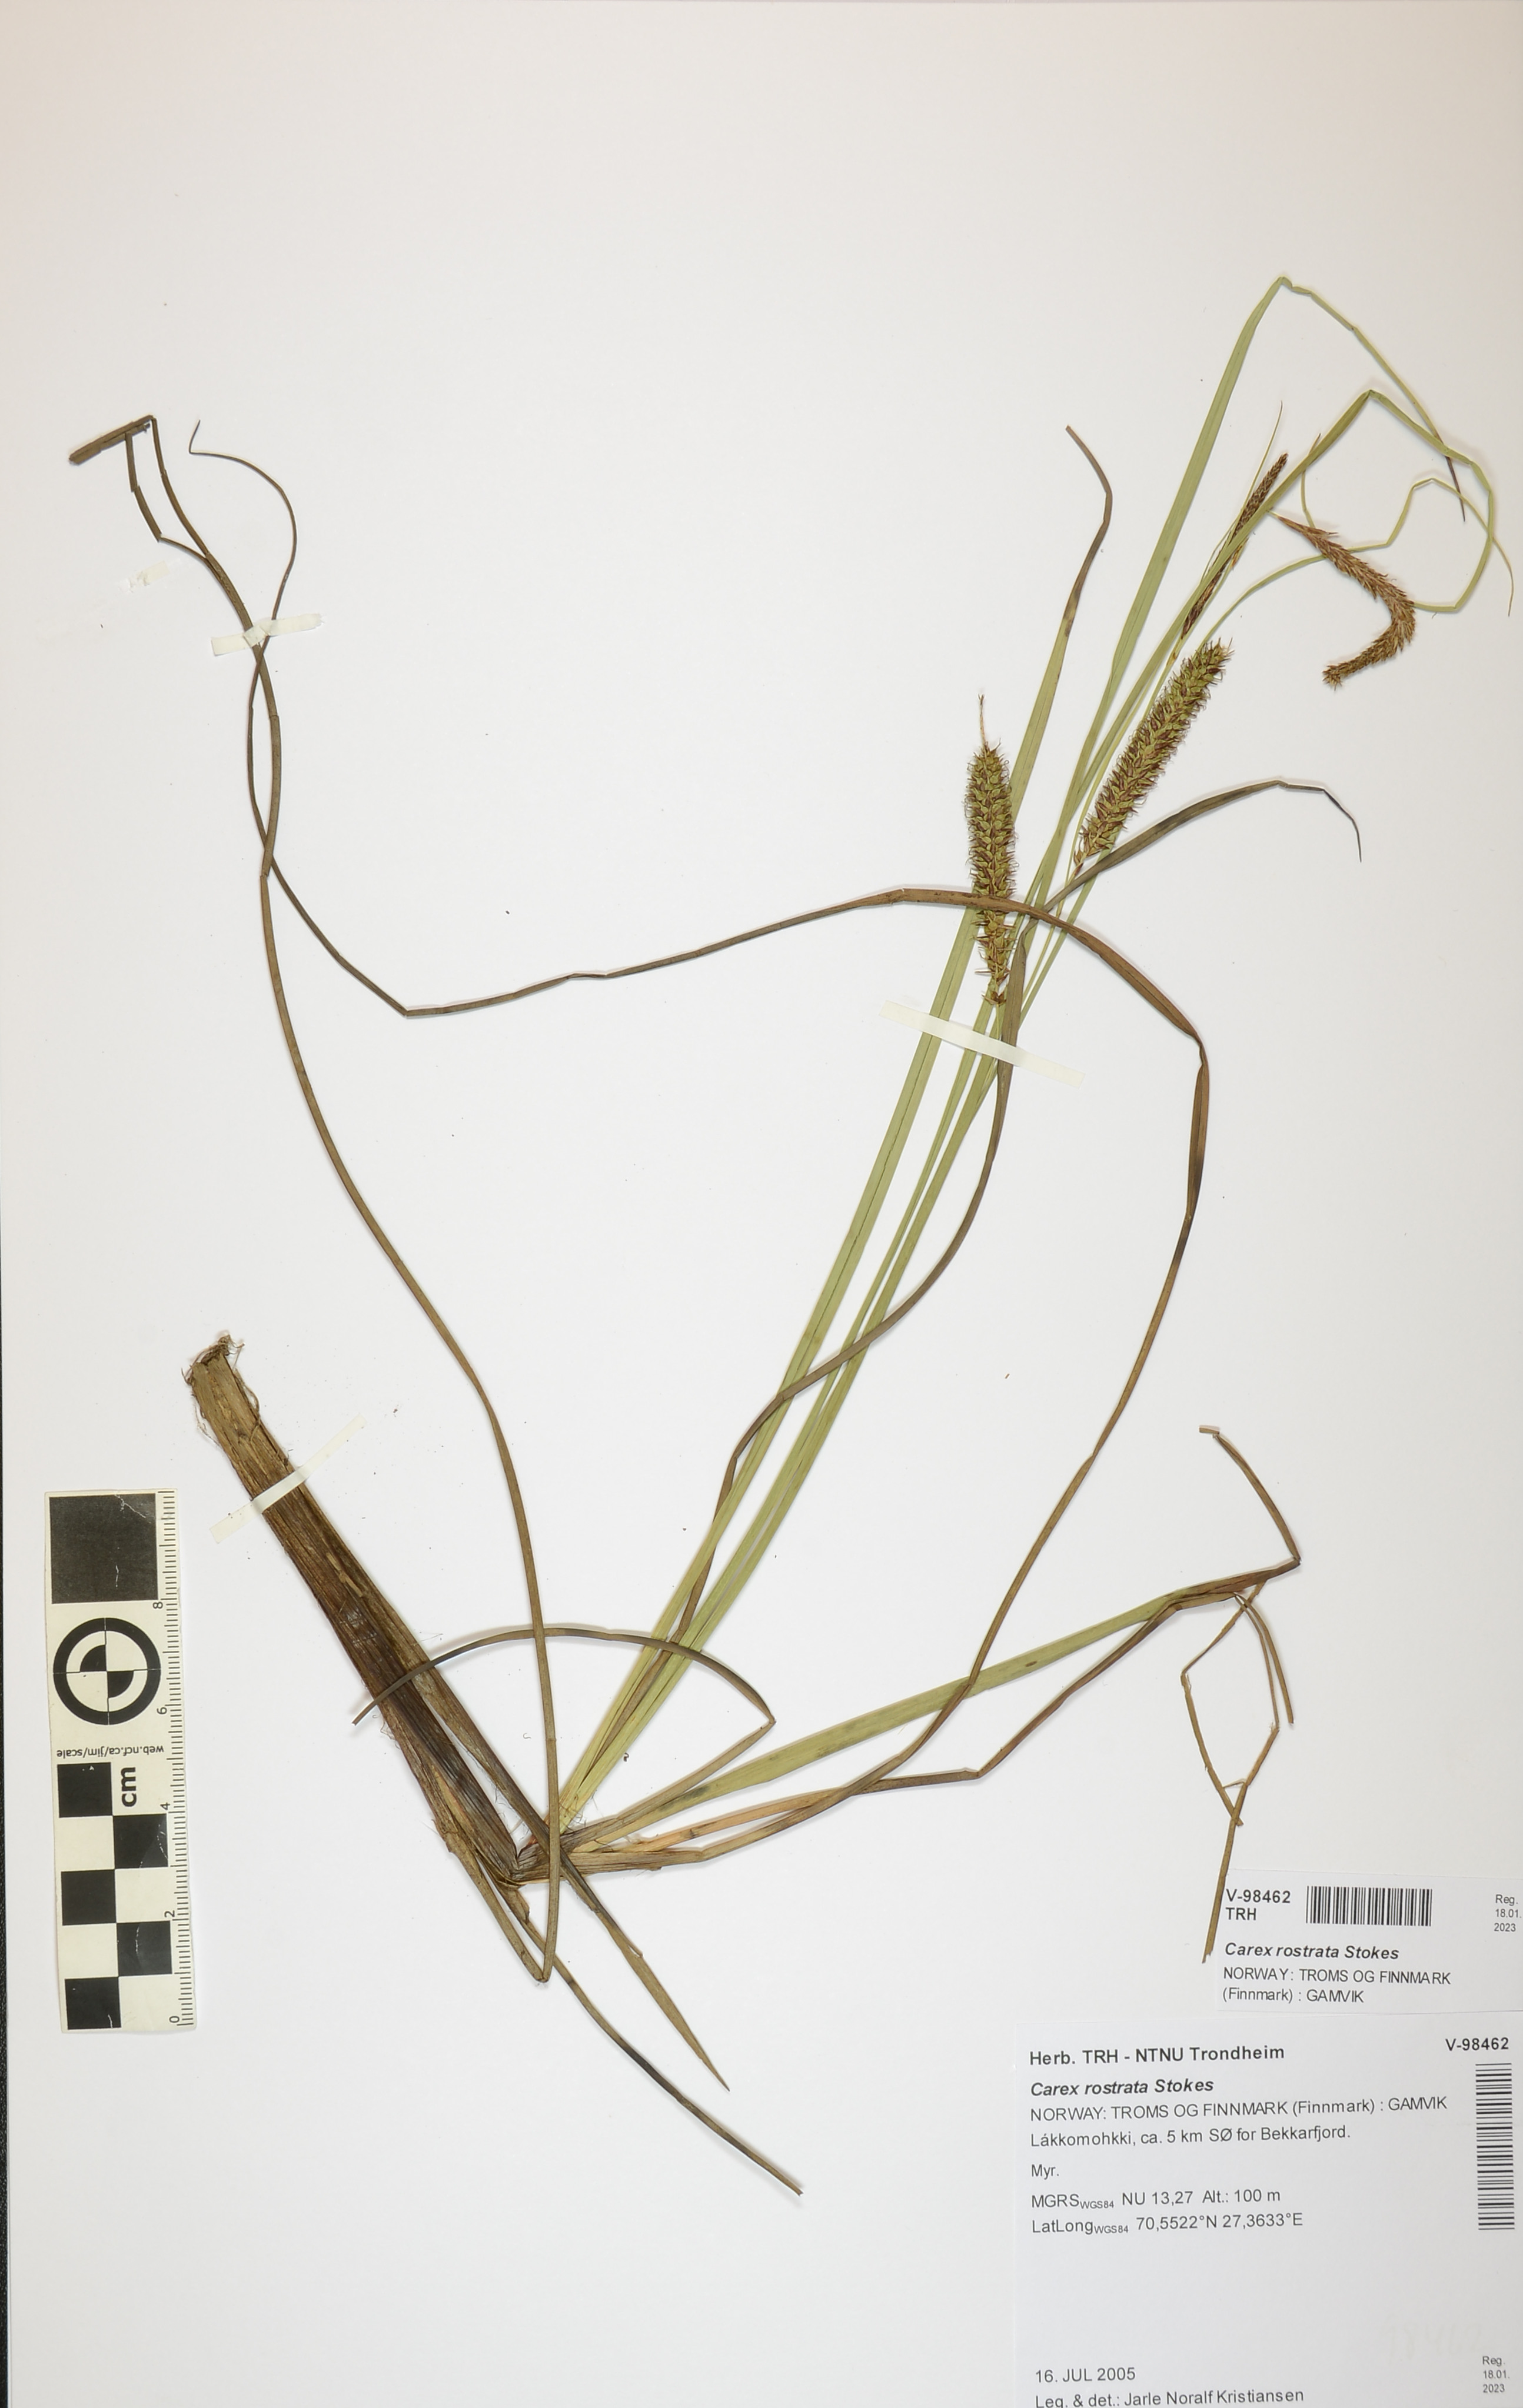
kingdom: Plantae
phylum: Tracheophyta
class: Liliopsida
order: Poales
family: Cyperaceae
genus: Carex
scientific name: Carex rostrata
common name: Bottle sedge
